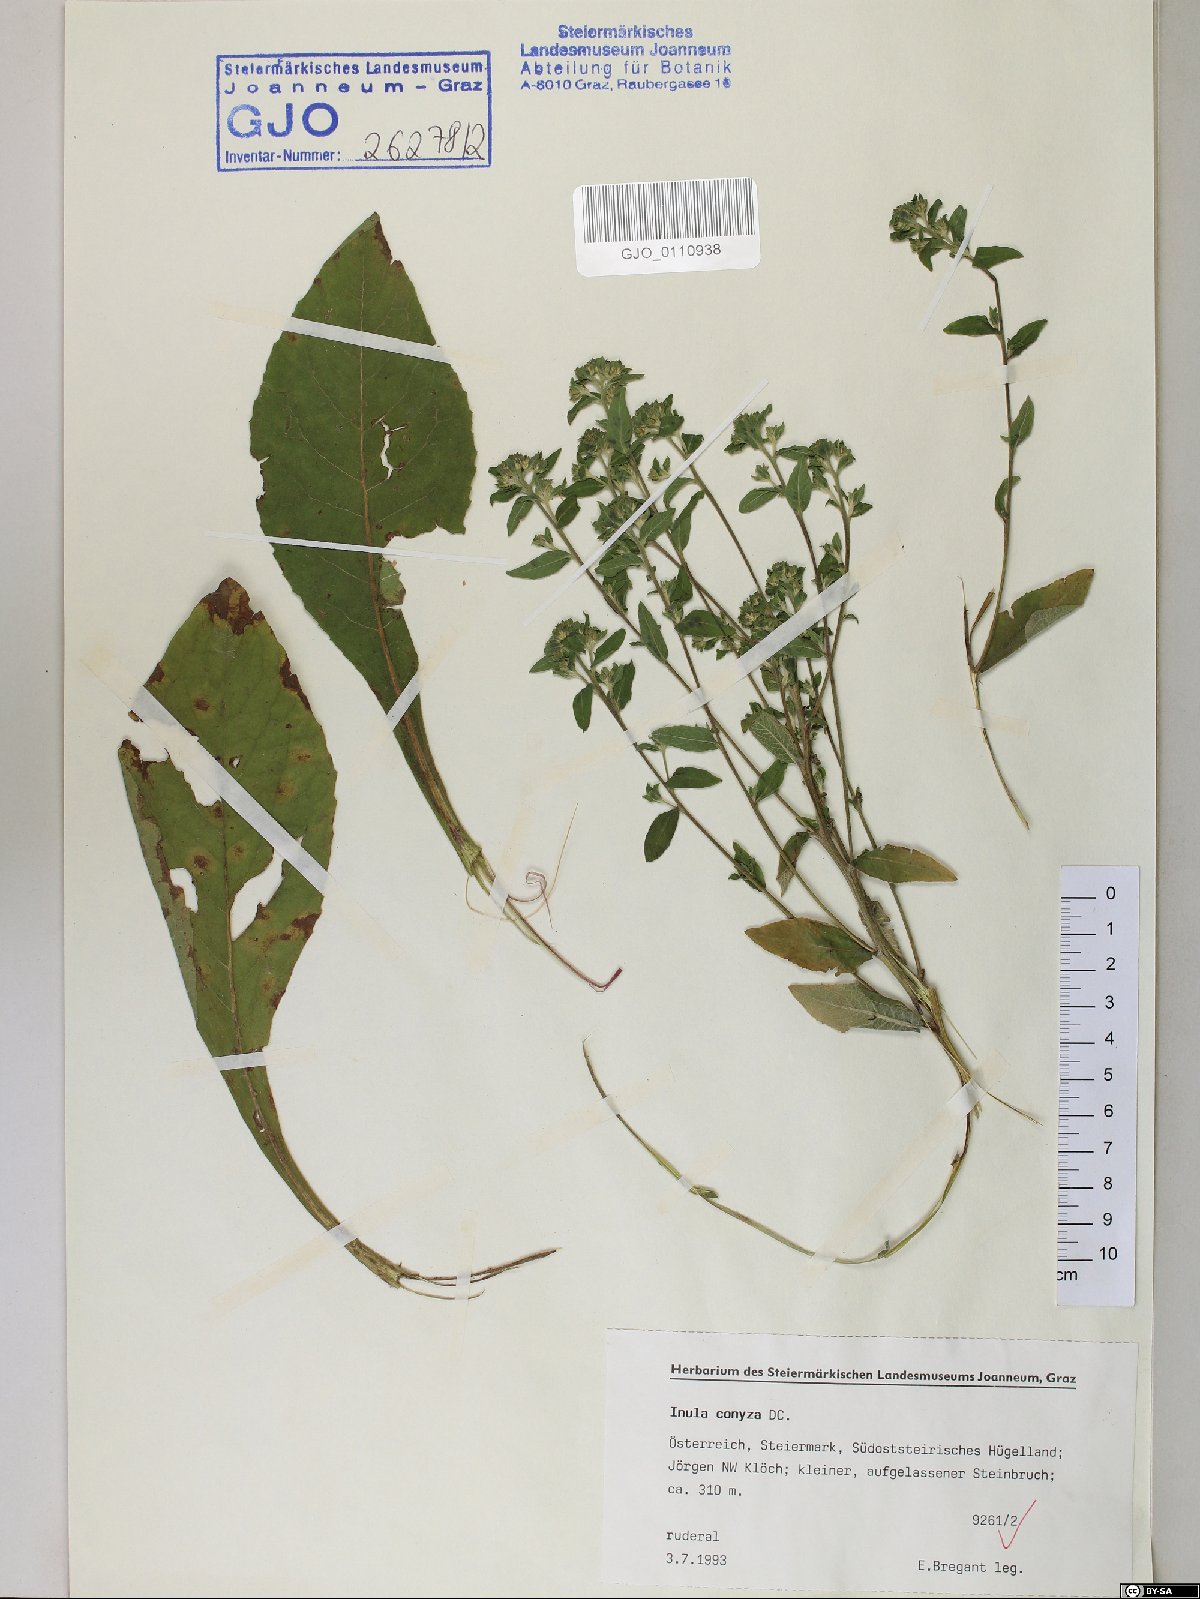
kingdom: Plantae
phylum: Tracheophyta
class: Magnoliopsida
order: Asterales
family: Asteraceae
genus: Pentanema
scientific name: Pentanema squarrosum
